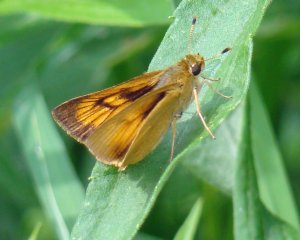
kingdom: Animalia
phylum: Arthropoda
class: Insecta
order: Lepidoptera
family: Hesperiidae
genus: Atrytone
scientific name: Atrytone delaware
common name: Delaware Skipper
